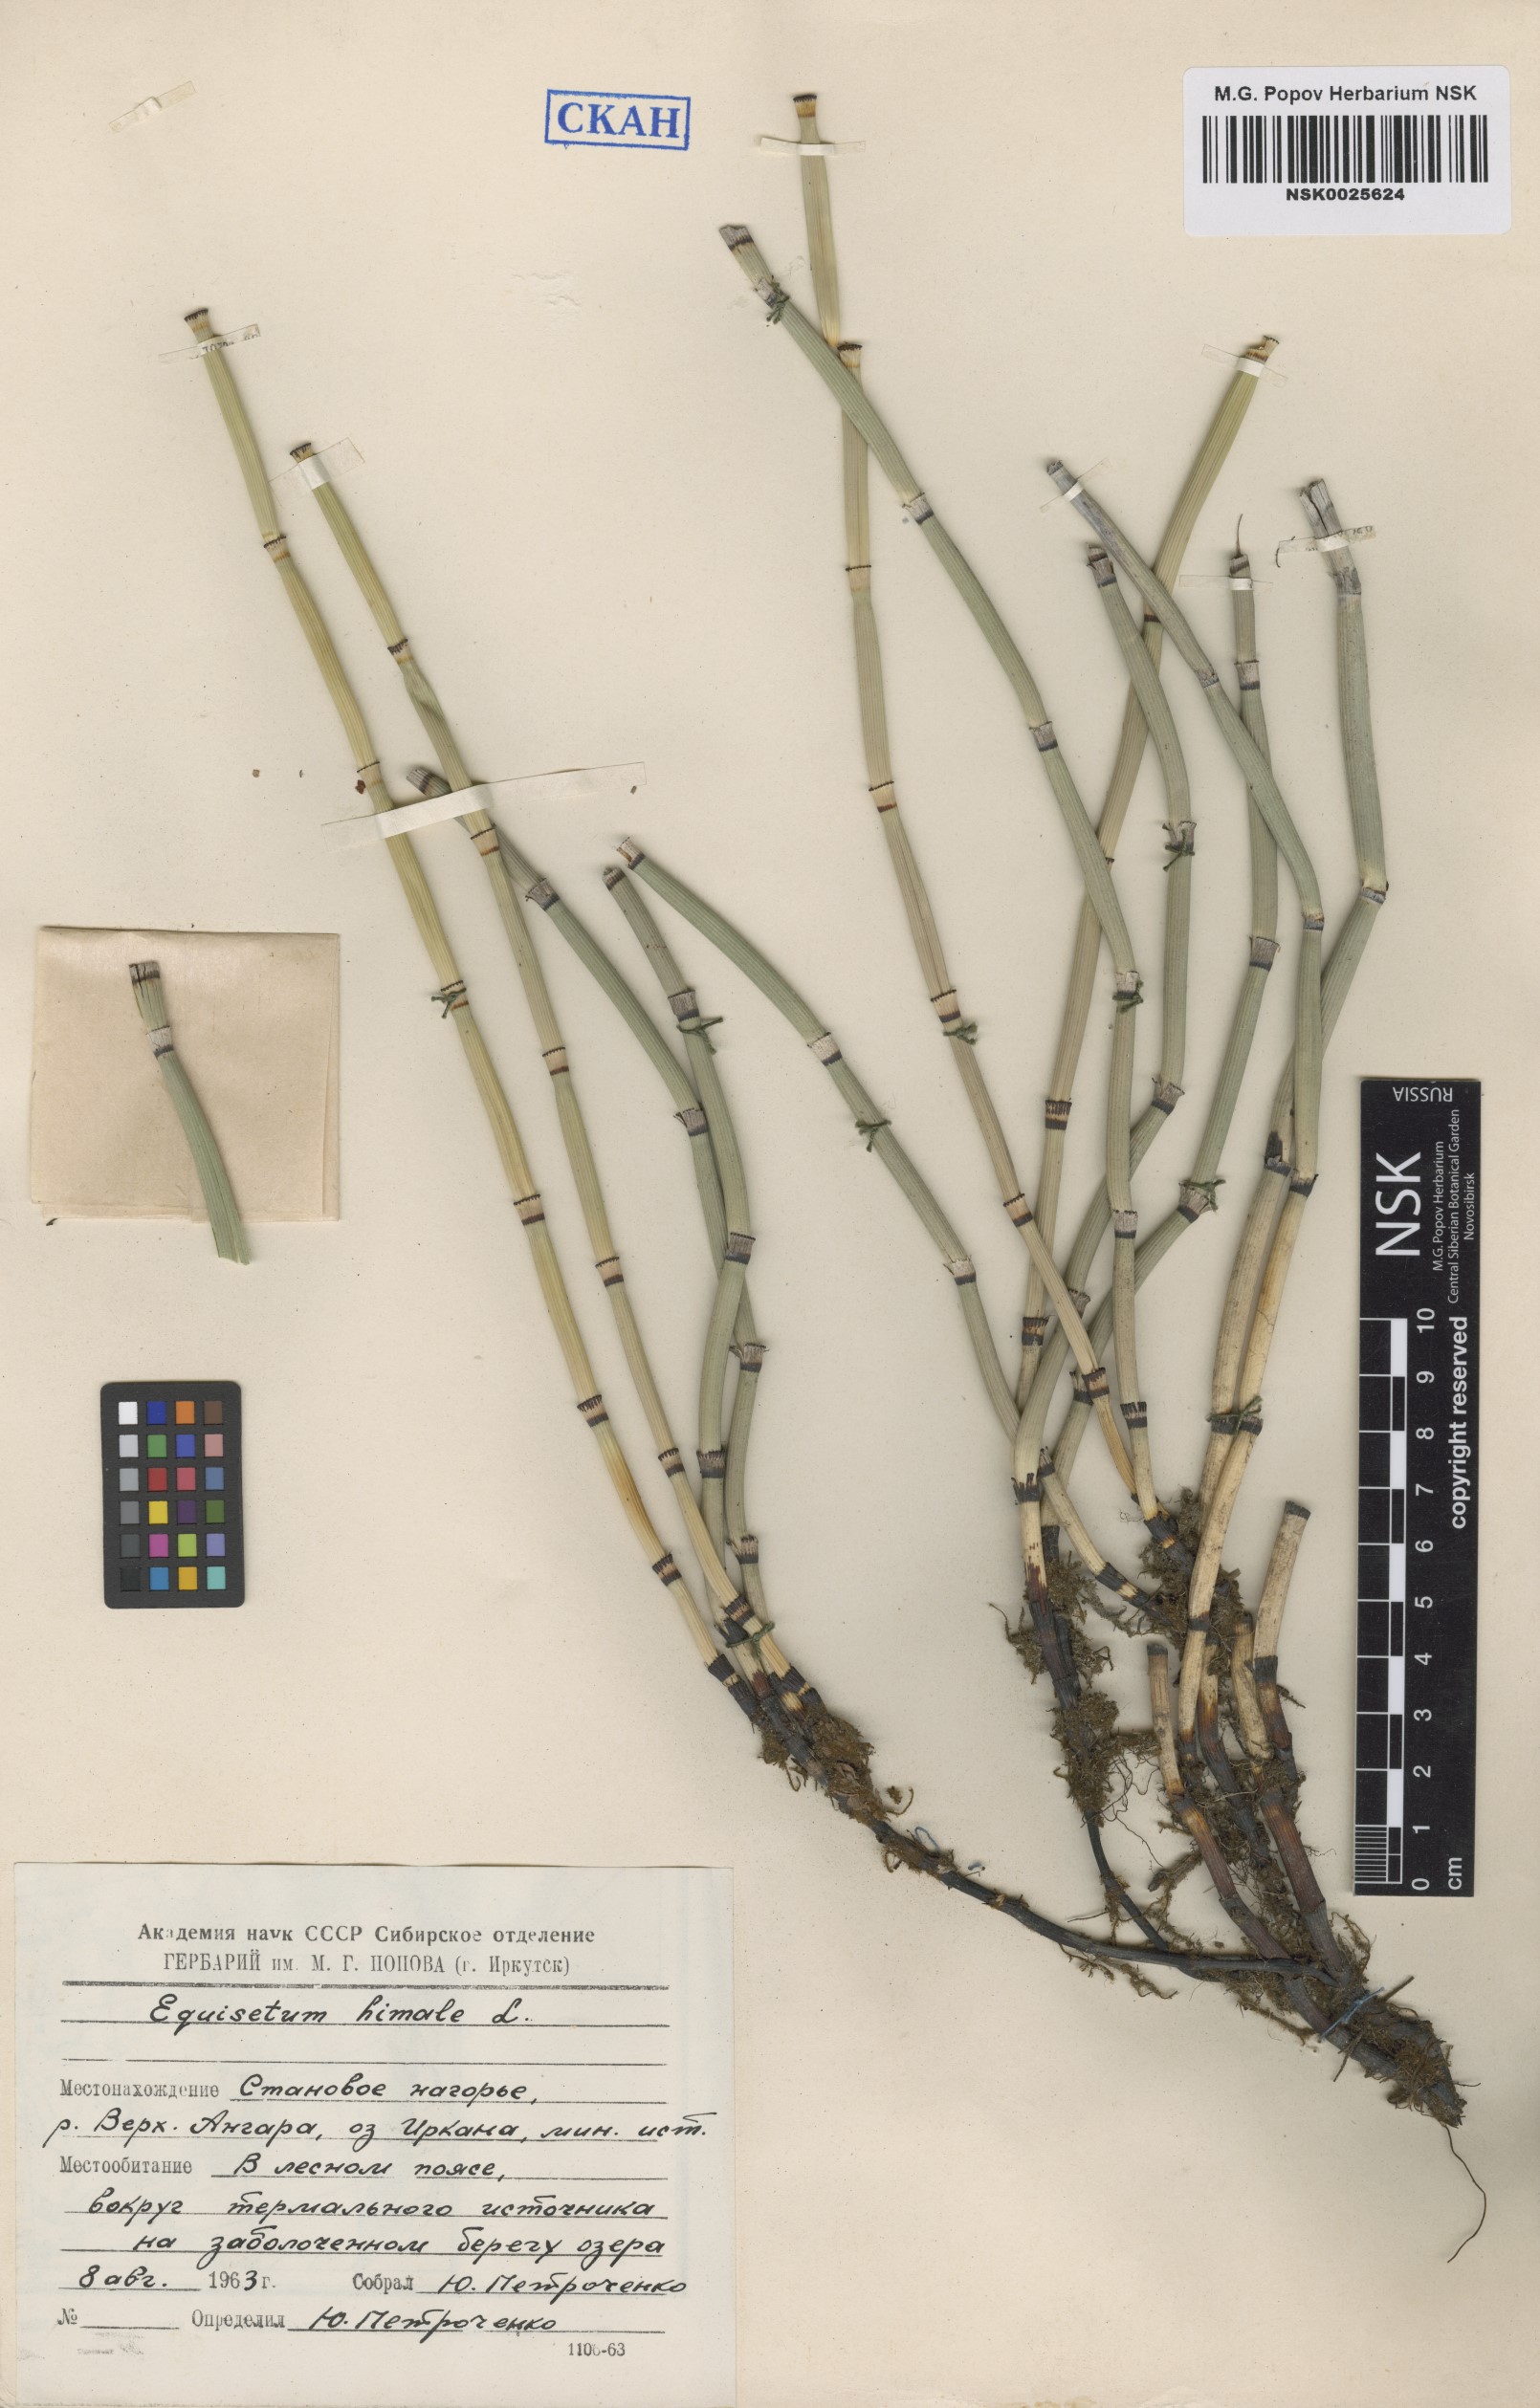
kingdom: Plantae
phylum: Tracheophyta
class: Polypodiopsida
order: Equisetales
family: Equisetaceae
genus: Equisetum
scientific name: Equisetum hyemale
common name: Rough horsetail
